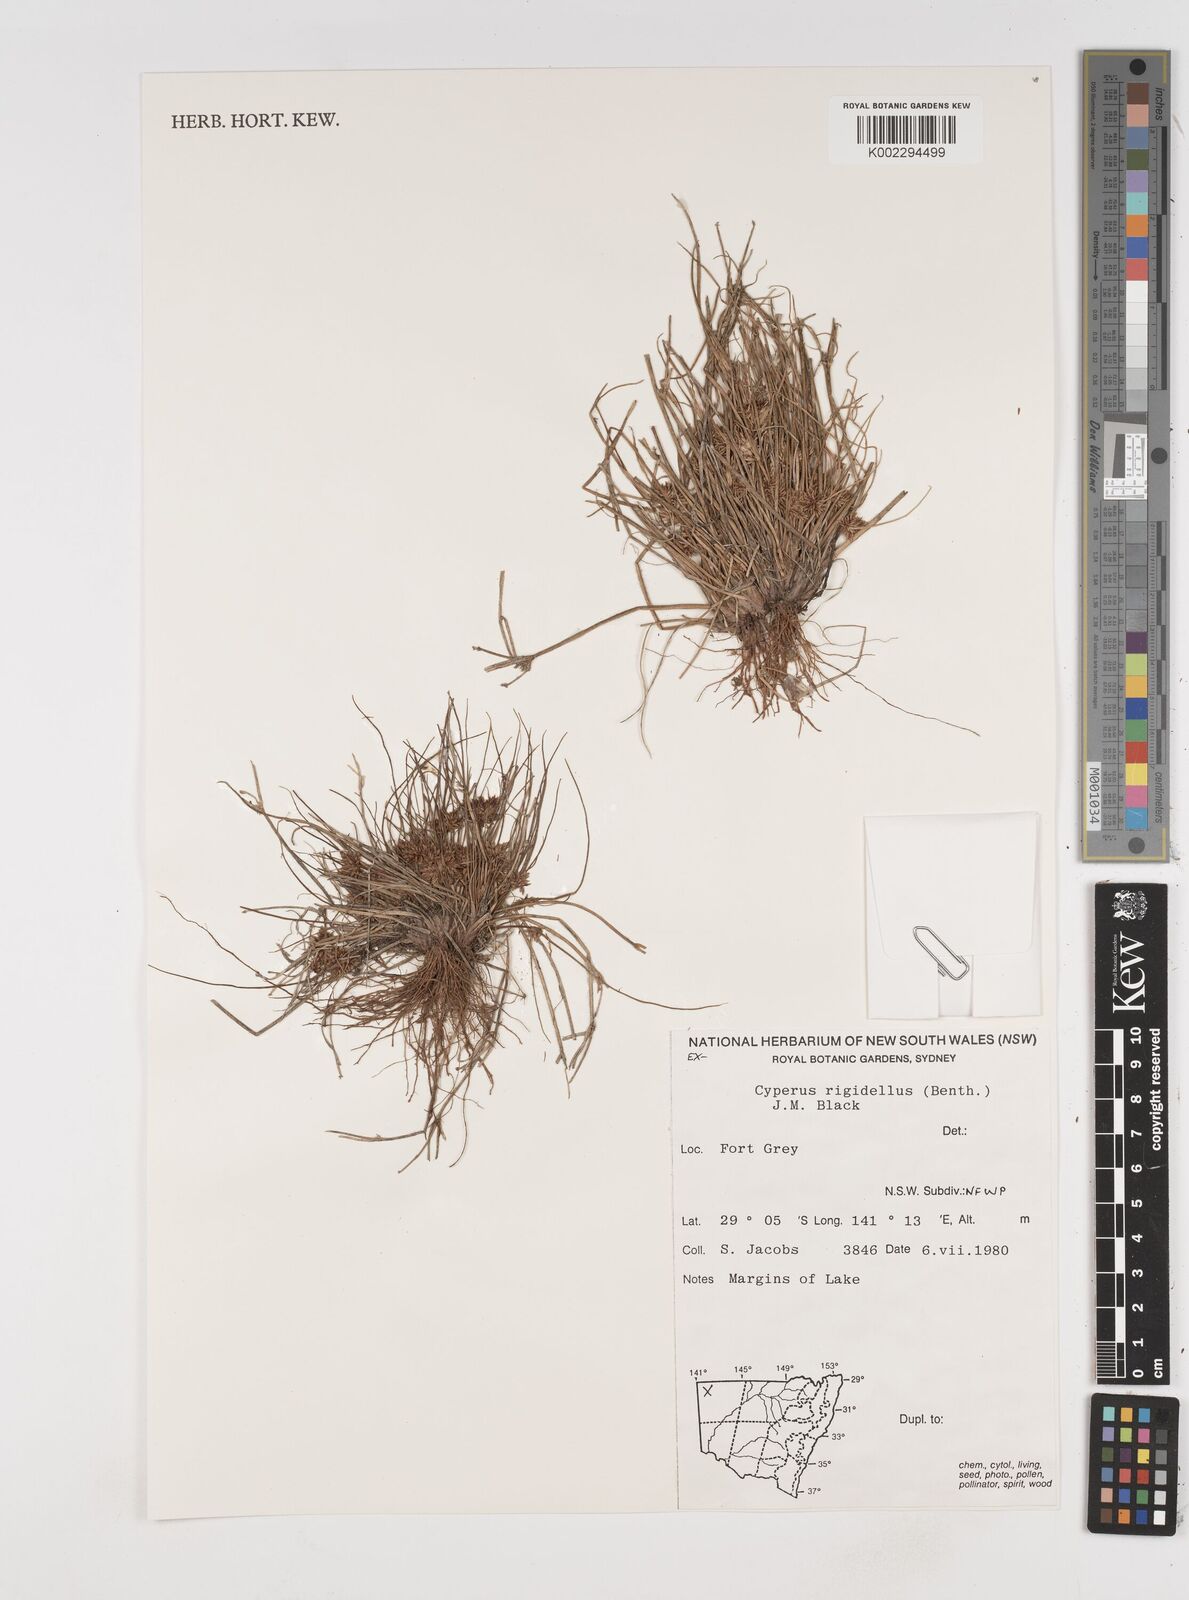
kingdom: Plantae
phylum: Tracheophyta
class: Liliopsida
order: Poales
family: Cyperaceae
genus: Cyperus
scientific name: Cyperus rigidellus
